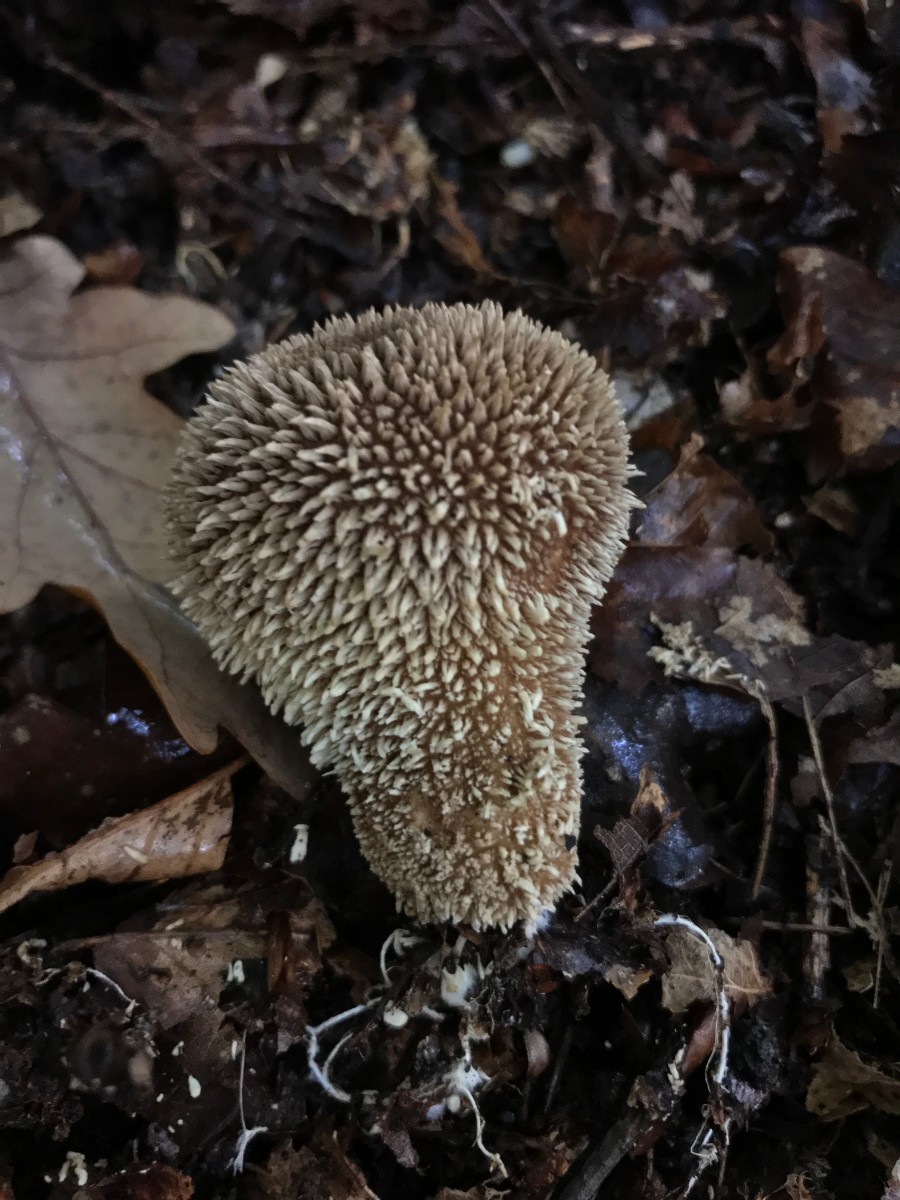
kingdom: Fungi
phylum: Basidiomycota
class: Agaricomycetes
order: Agaricales
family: Lycoperdaceae
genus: Lycoperdon
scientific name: Lycoperdon echinatum
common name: pindsvine-støvbold
